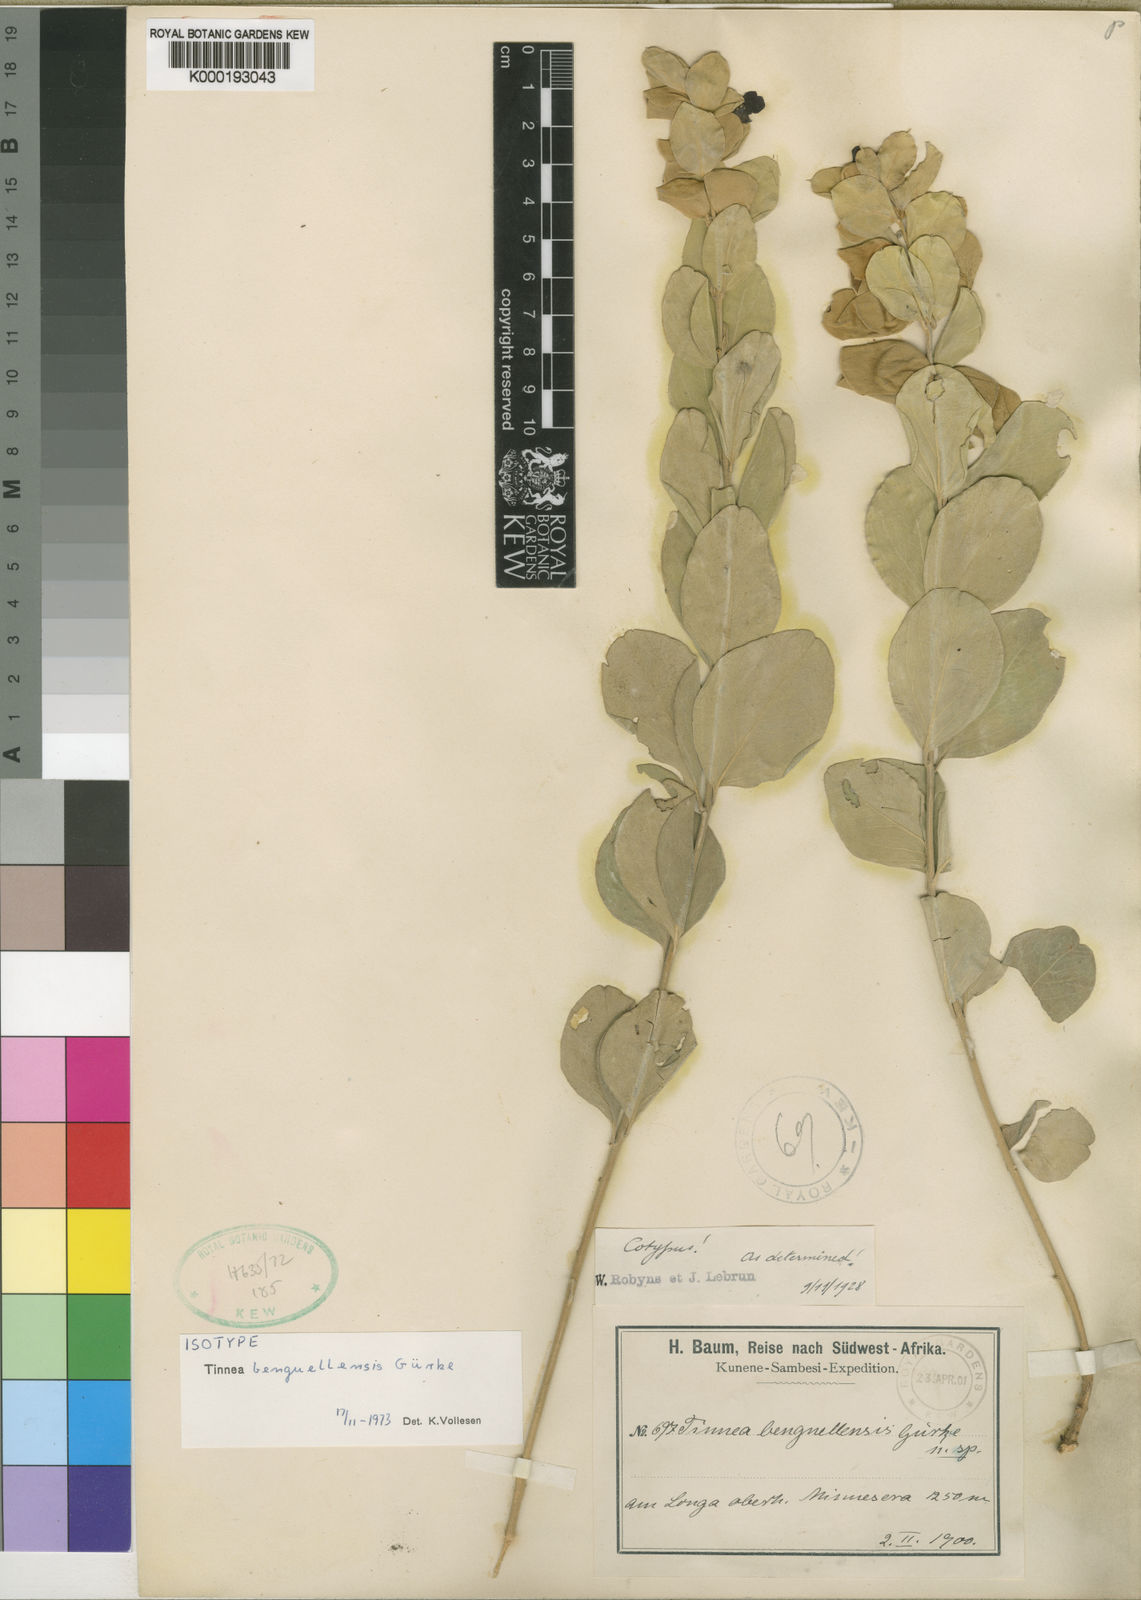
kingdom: Plantae
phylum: Tracheophyta
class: Magnoliopsida
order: Lamiales
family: Lamiaceae
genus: Tinnea
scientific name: Tinnea
